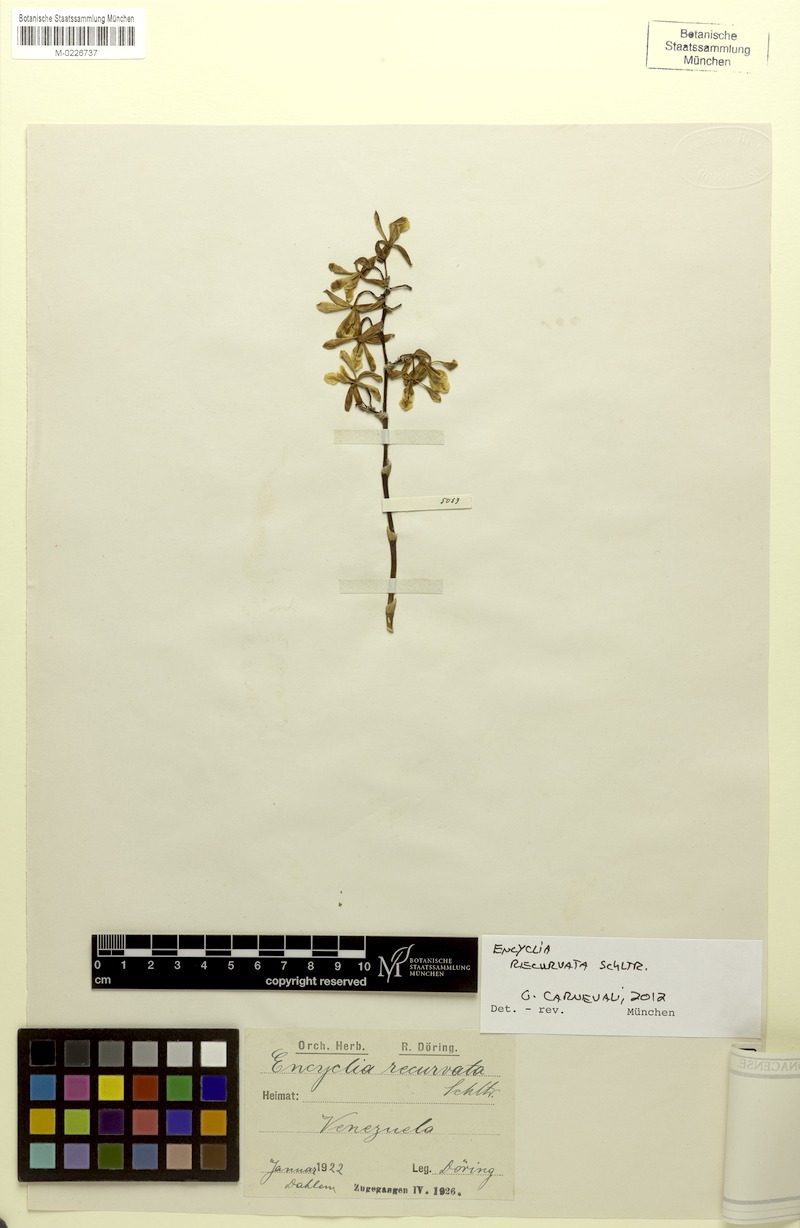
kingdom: Plantae
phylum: Tracheophyta
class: Liliopsida
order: Asparagales
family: Orchidaceae
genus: Encyclia
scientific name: Encyclia recurvata
